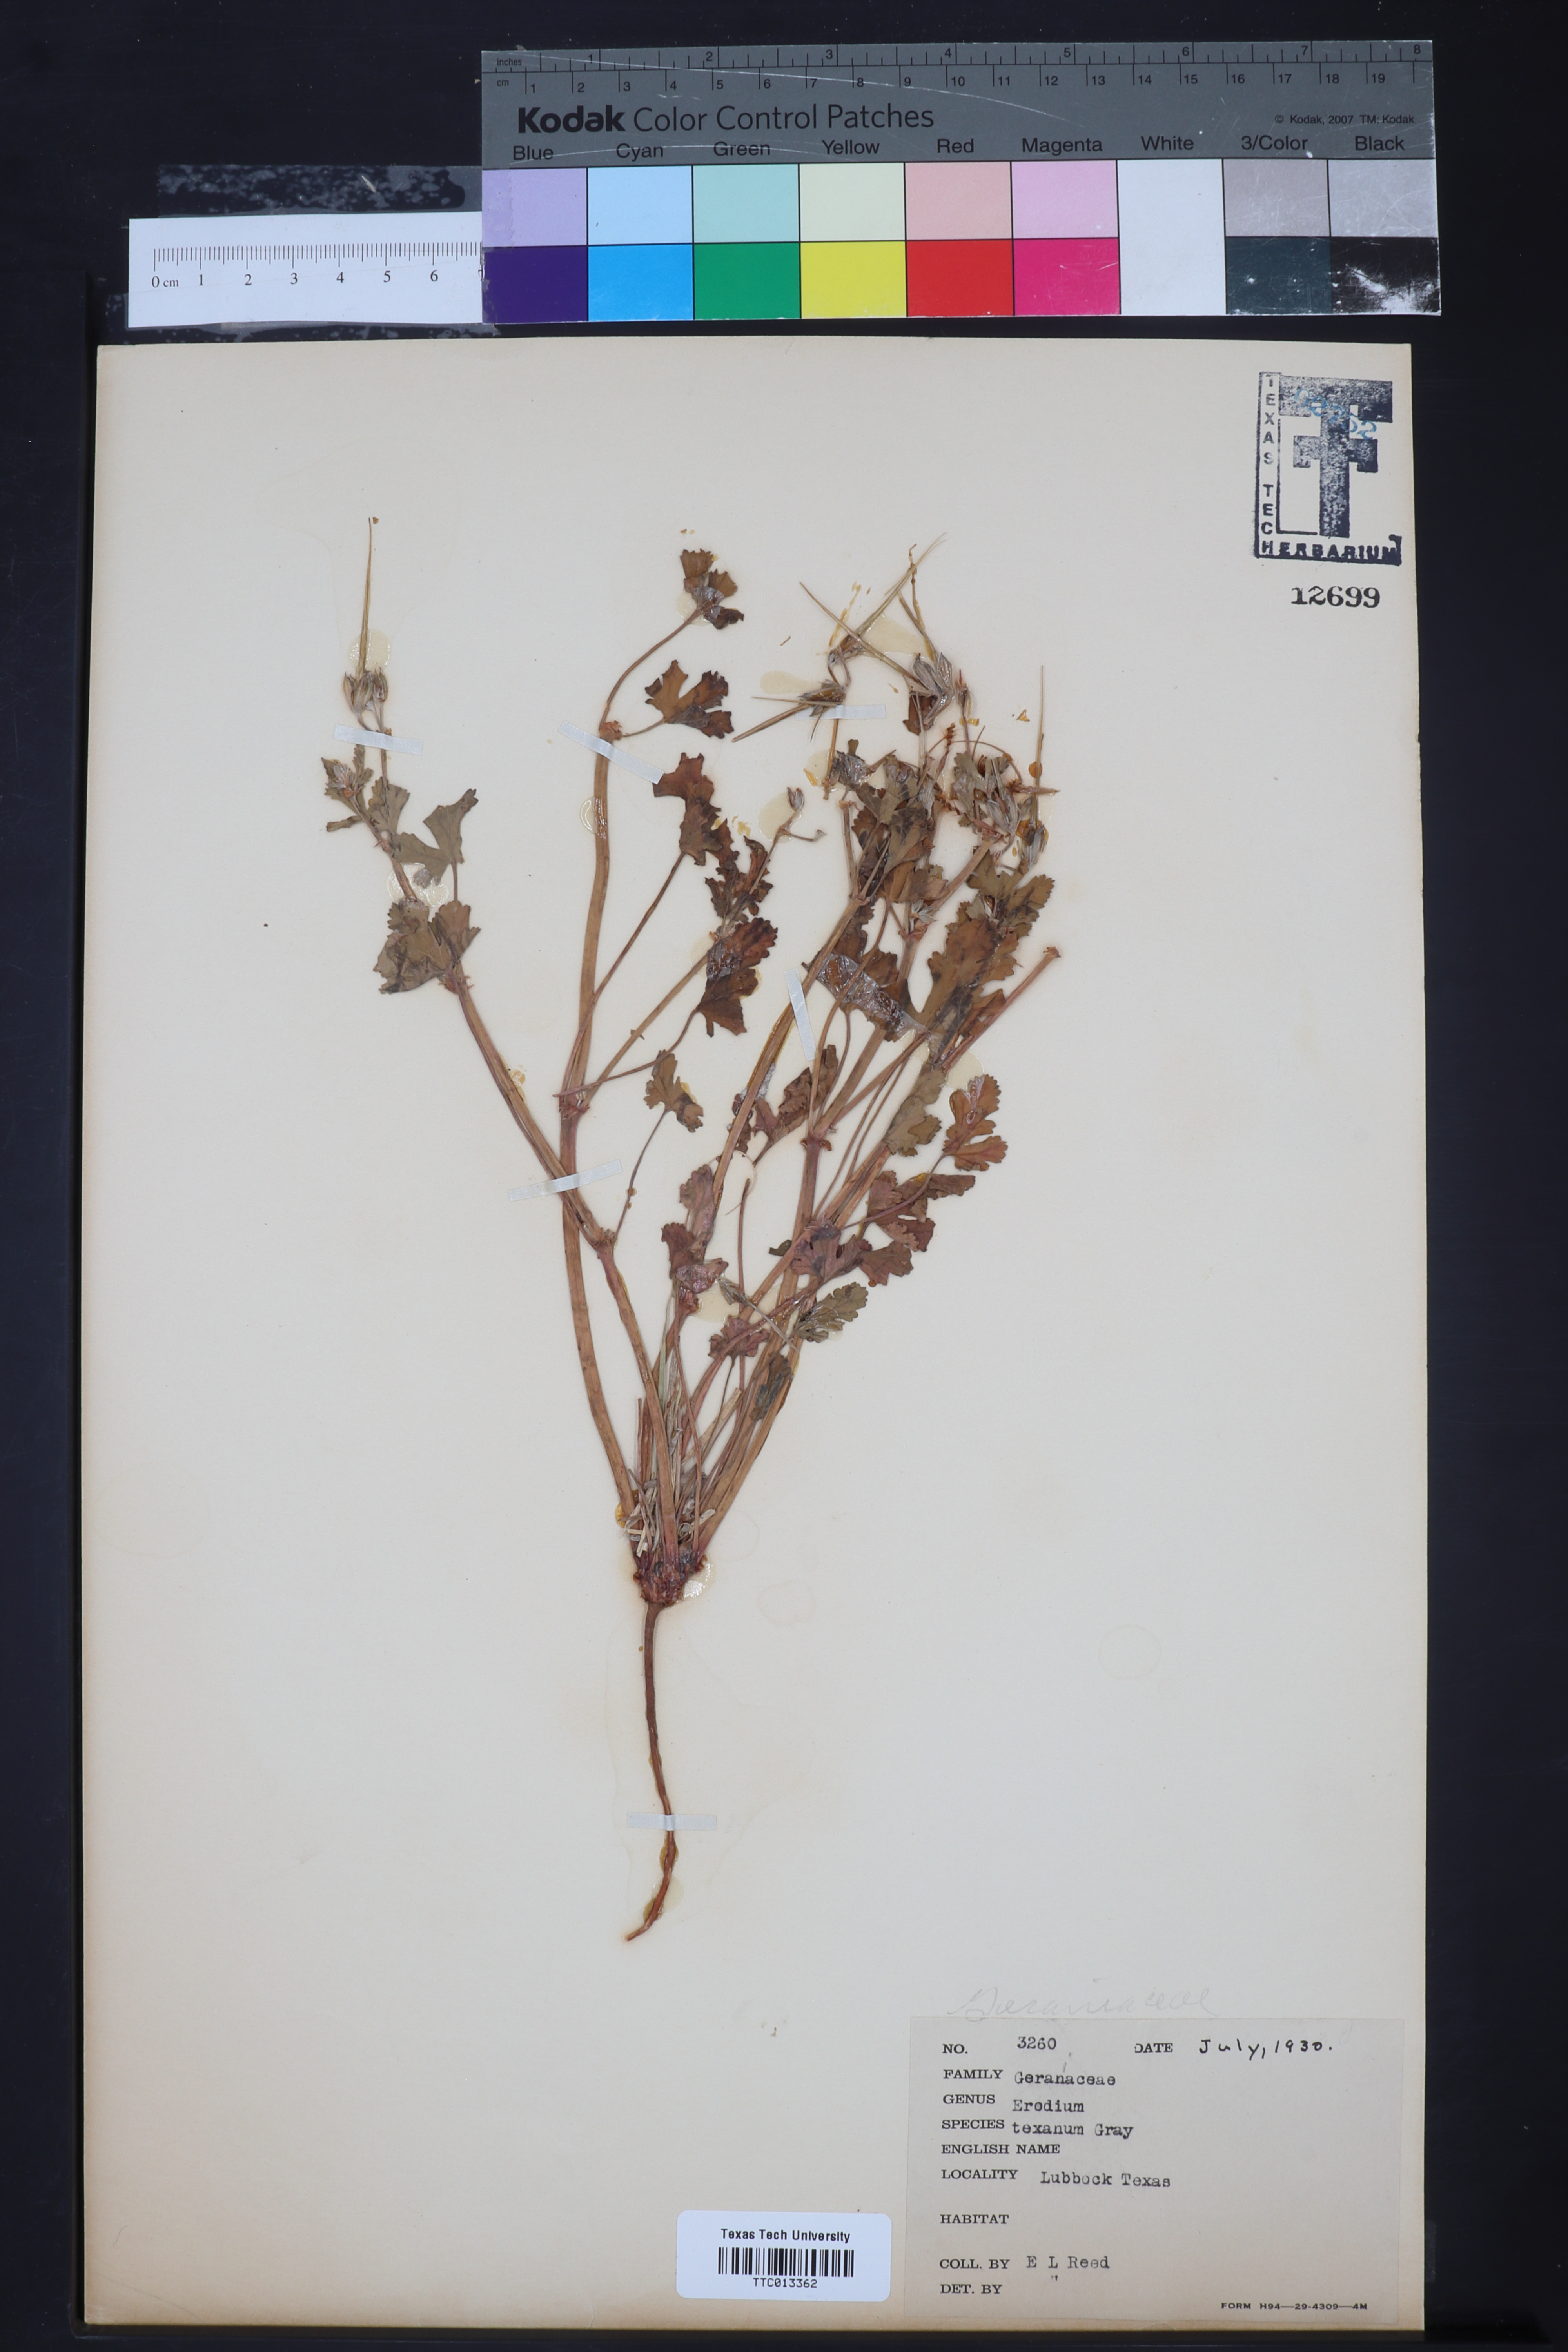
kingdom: Plantae
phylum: Tracheophyta
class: Magnoliopsida
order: Geraniales
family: Geraniaceae
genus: Erodium
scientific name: Erodium texanum
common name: Texas stork's-bill
